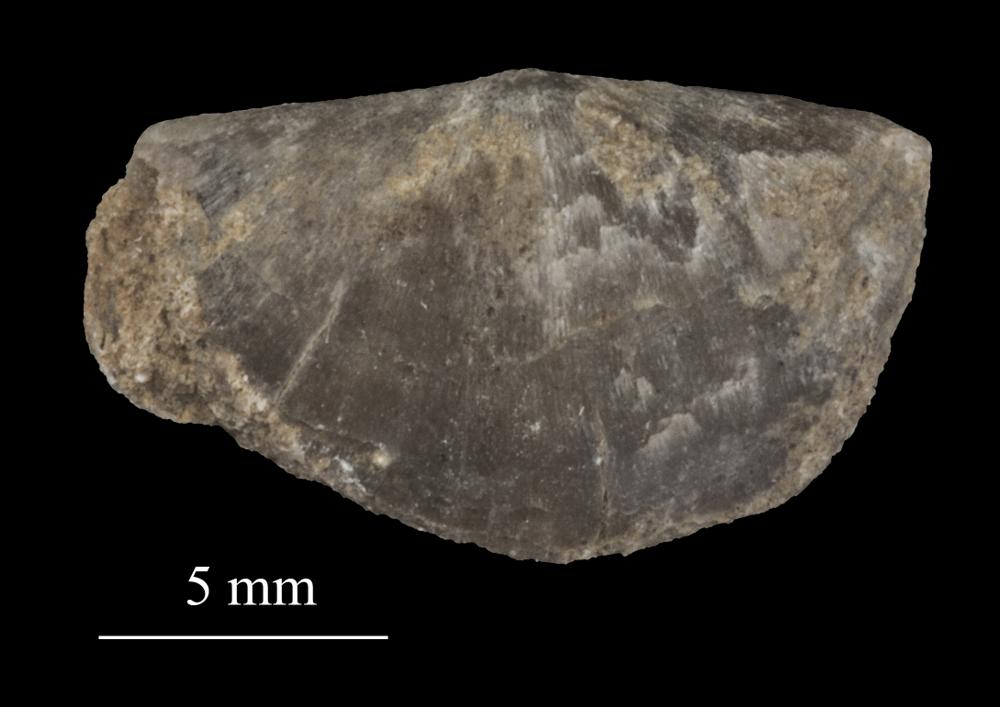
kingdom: Animalia
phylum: Brachiopoda
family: Sowerbyellidae
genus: Sowerbyella
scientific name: Sowerbyella
